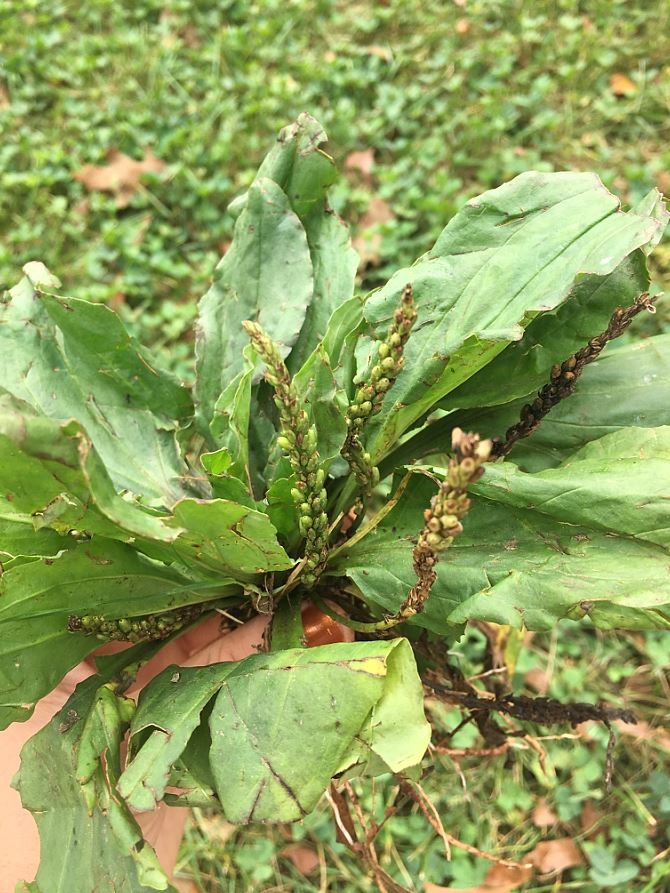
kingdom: Plantae
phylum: Tracheophyta
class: Magnoliopsida
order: Lamiales
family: Plantaginaceae
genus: Plantago
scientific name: Plantago rugelii
